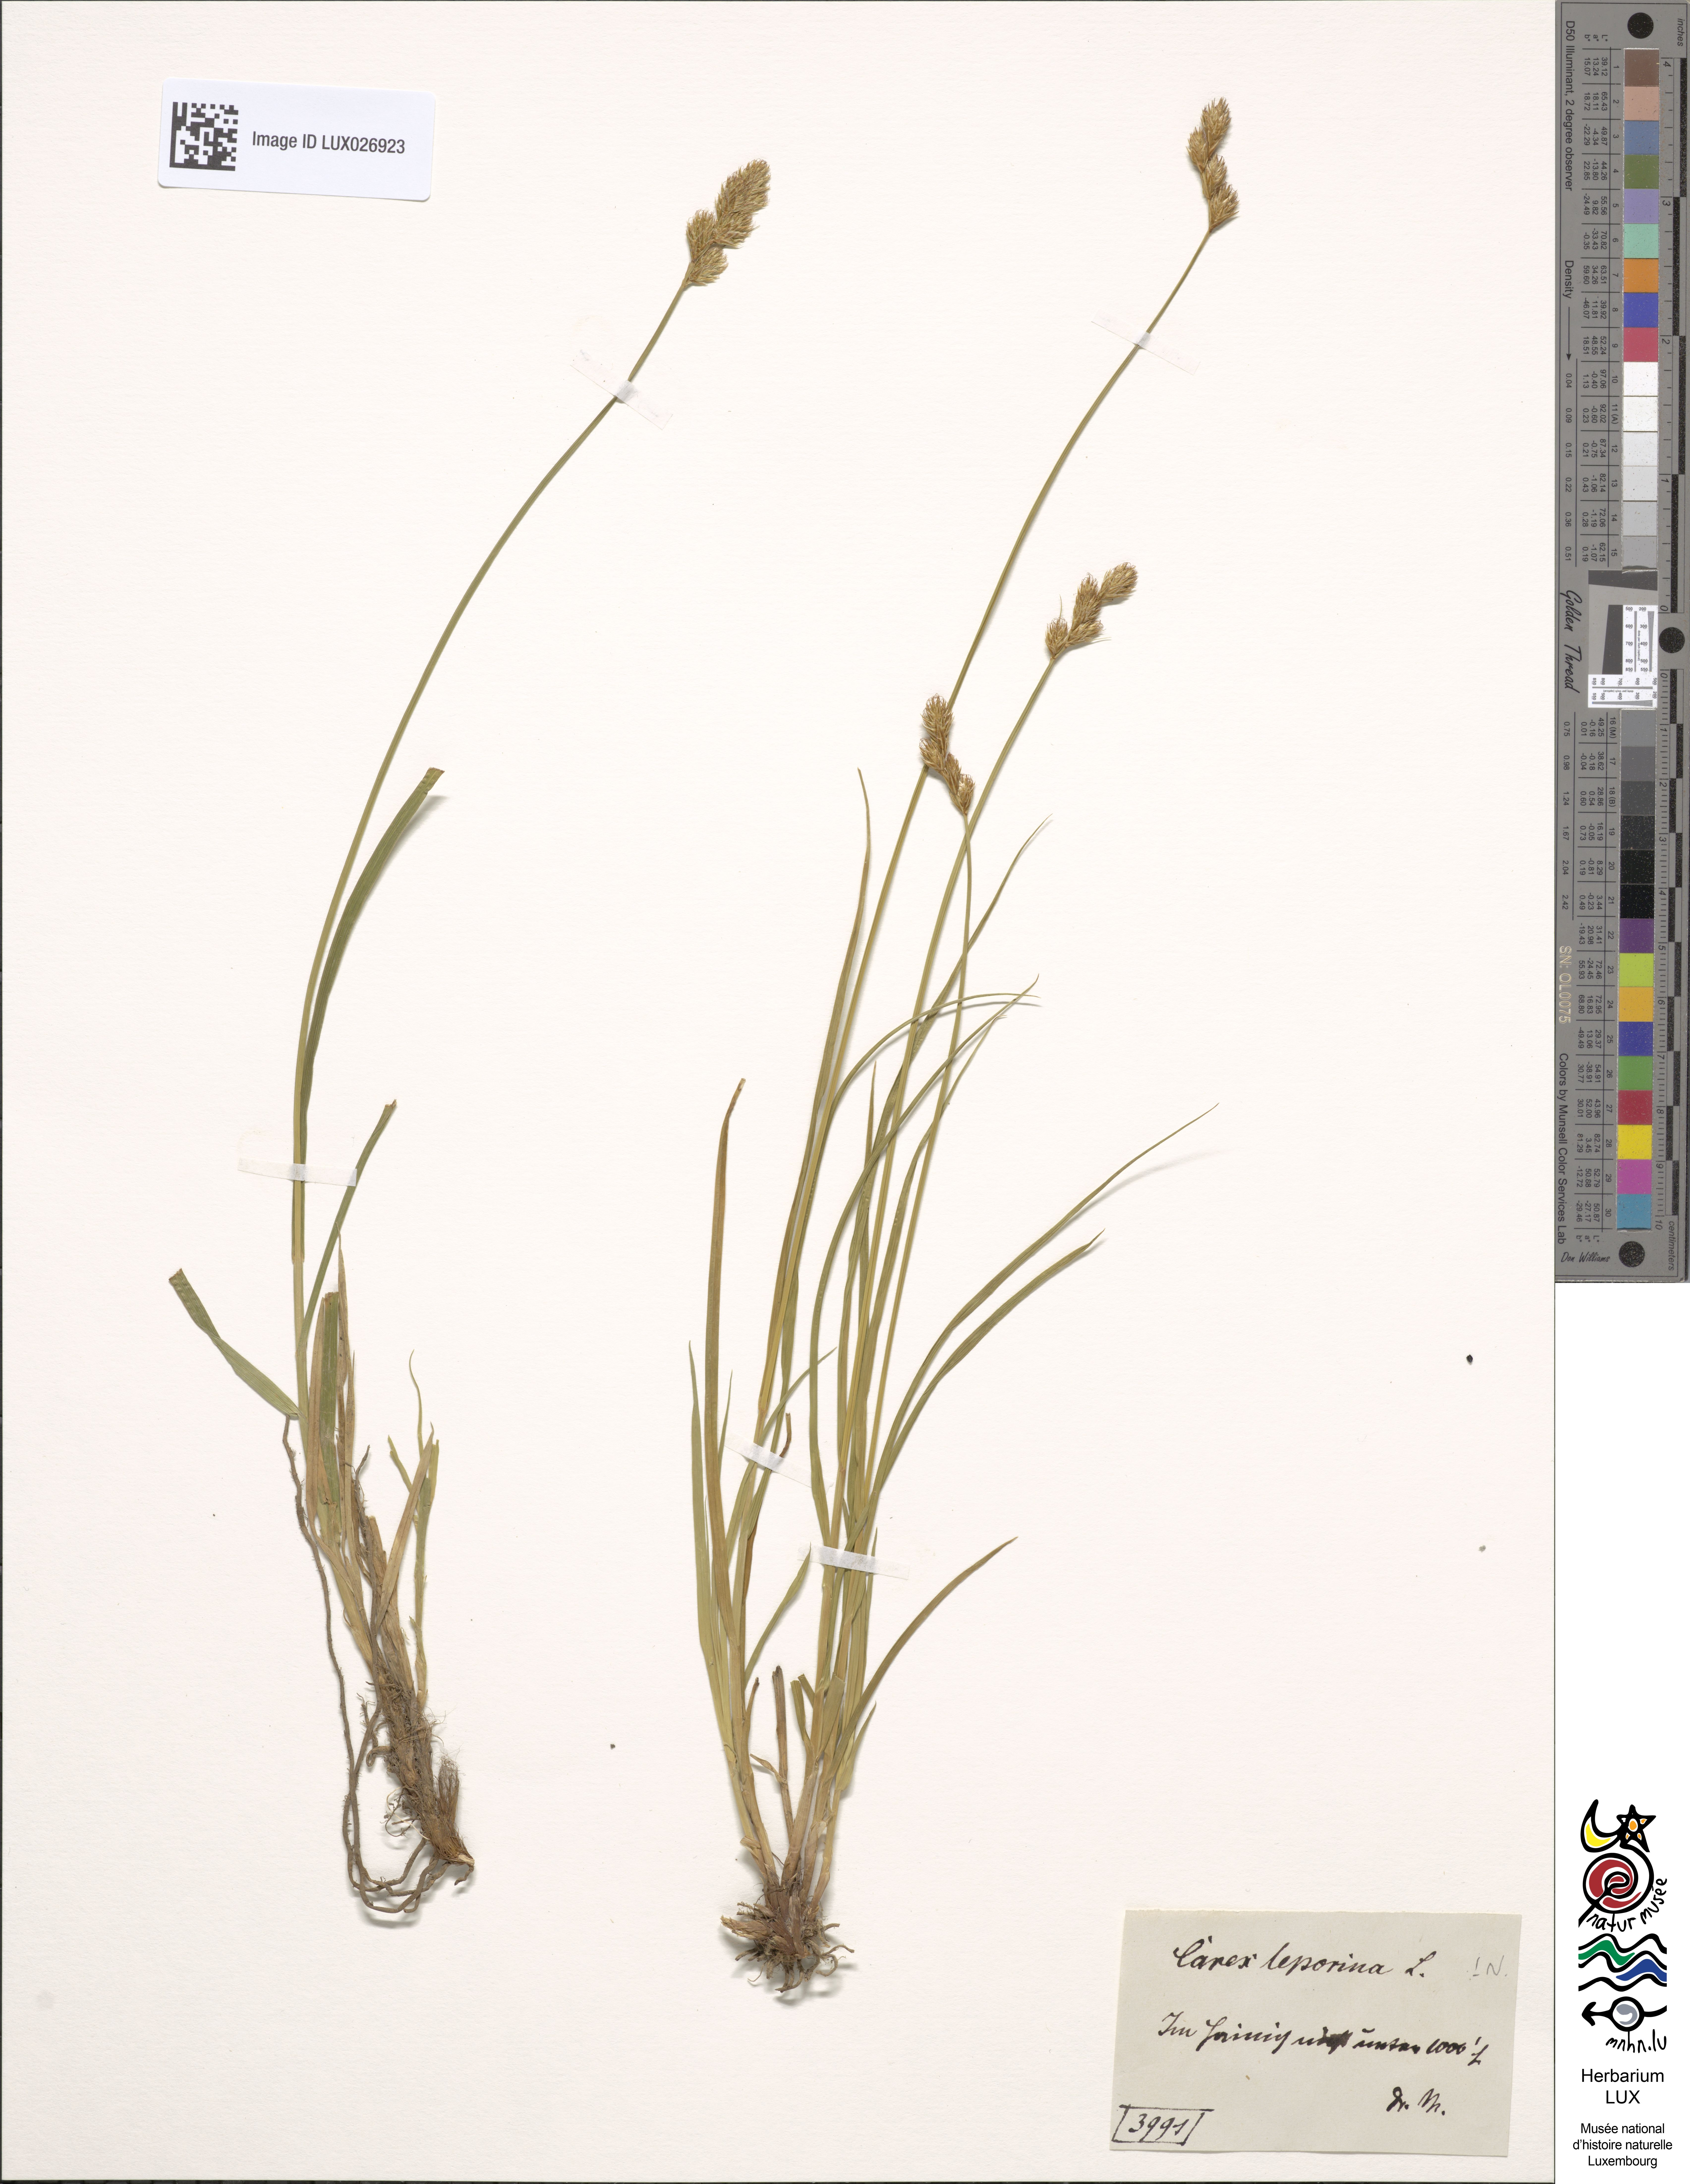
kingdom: Plantae
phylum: Tracheophyta
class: Liliopsida
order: Poales
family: Cyperaceae
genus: Carex
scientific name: Carex leporina
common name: Oval sedge
